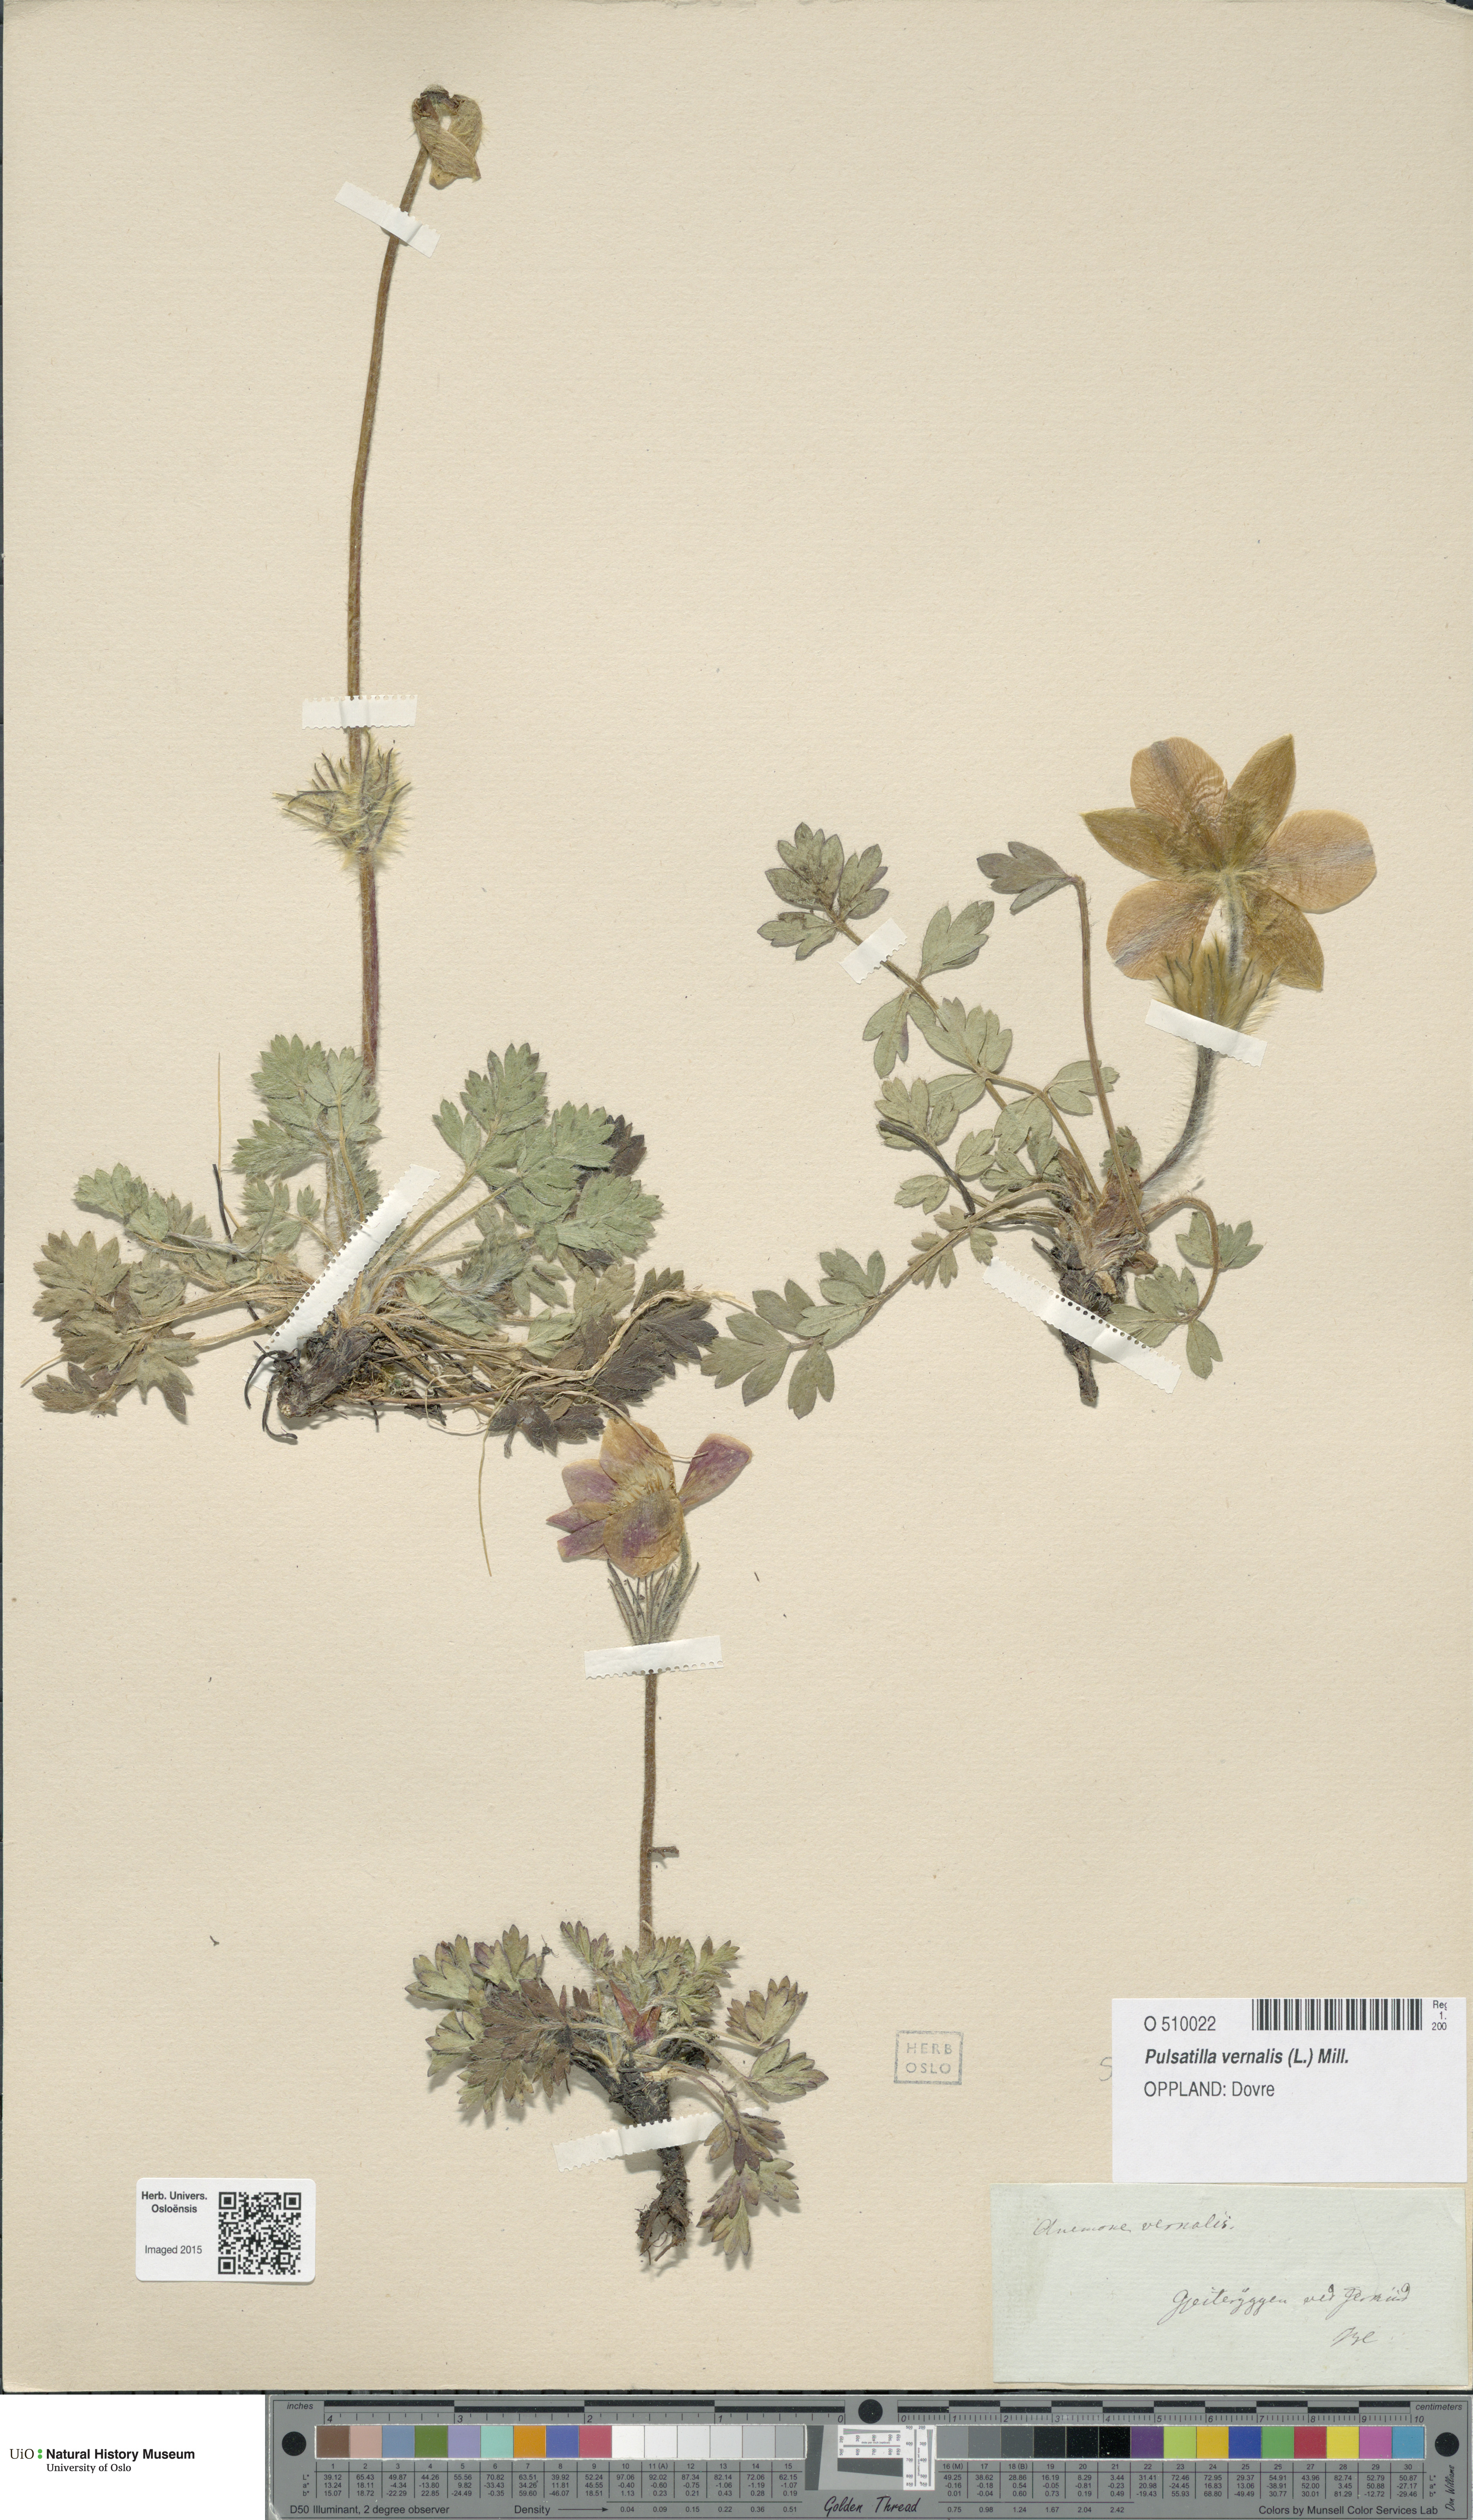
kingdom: Plantae
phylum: Tracheophyta
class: Magnoliopsida
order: Ranunculales
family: Ranunculaceae
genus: Pulsatilla
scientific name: Pulsatilla vernalis
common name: Spring pasque flower
